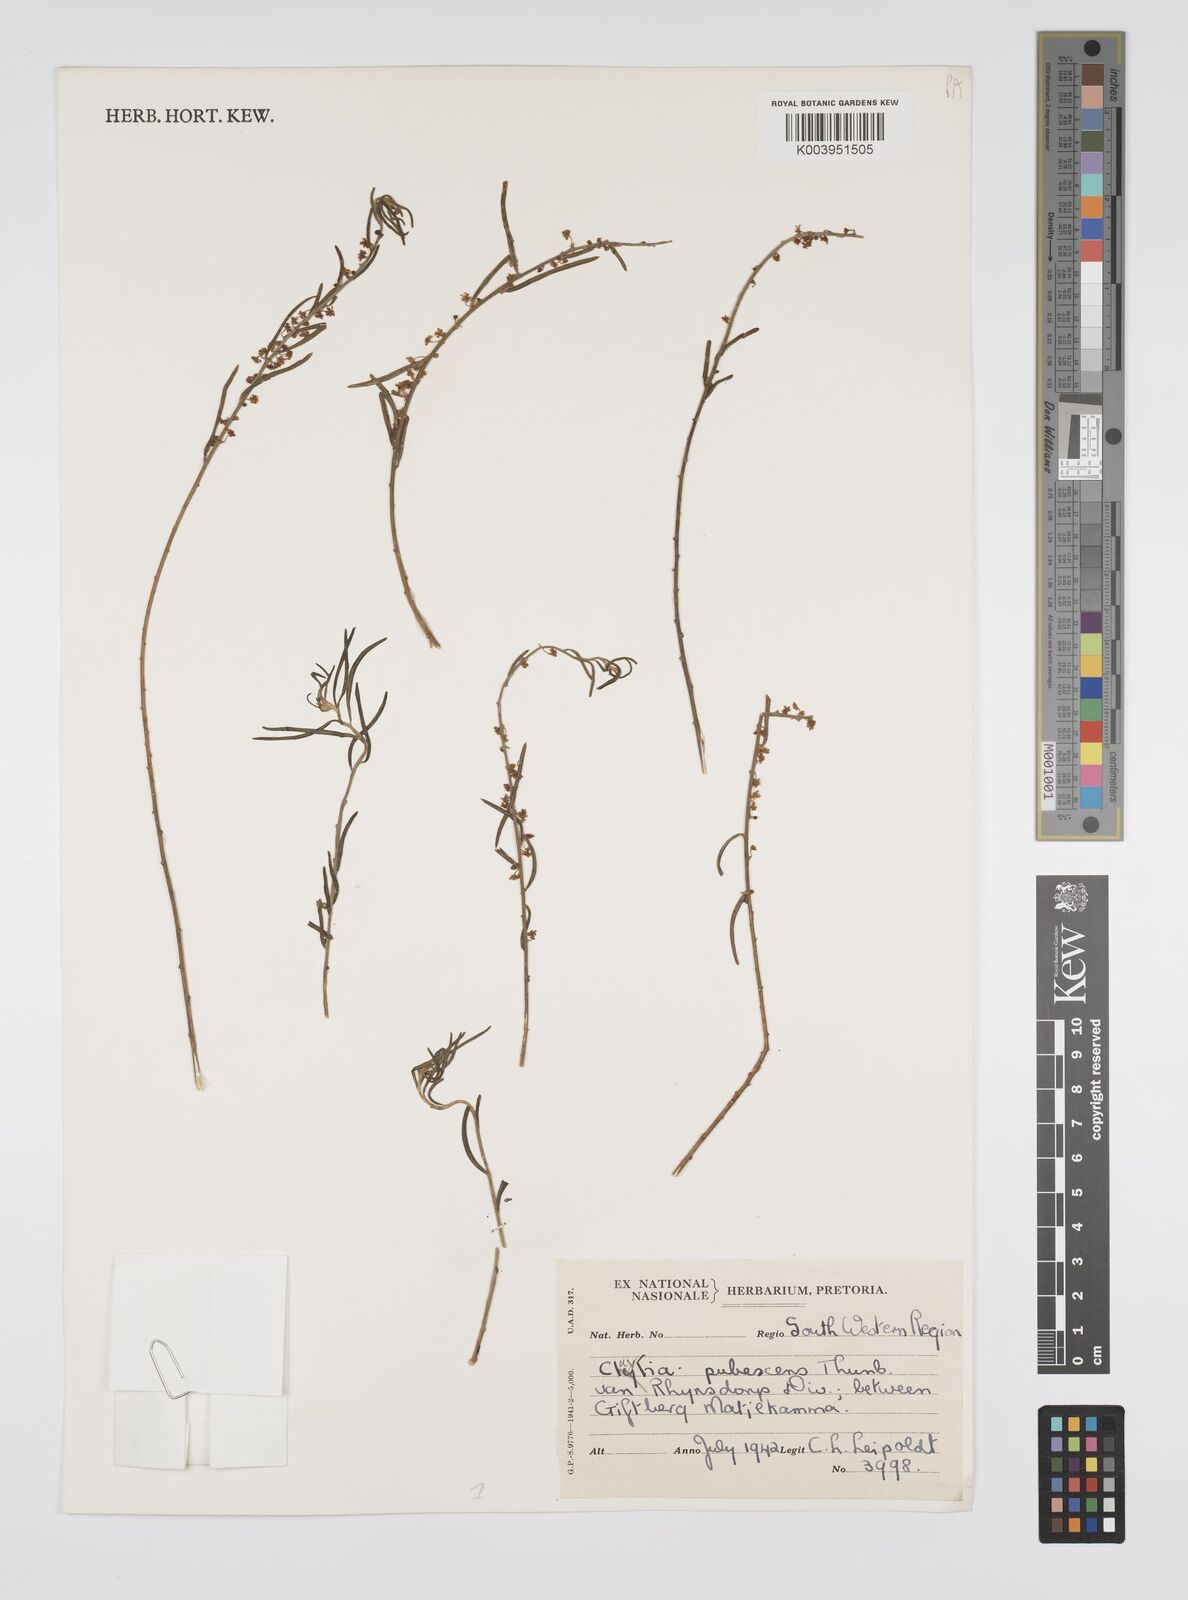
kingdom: Plantae
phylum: Tracheophyta
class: Magnoliopsida
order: Malpighiales
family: Peraceae
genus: Clutia
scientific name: Clutia
